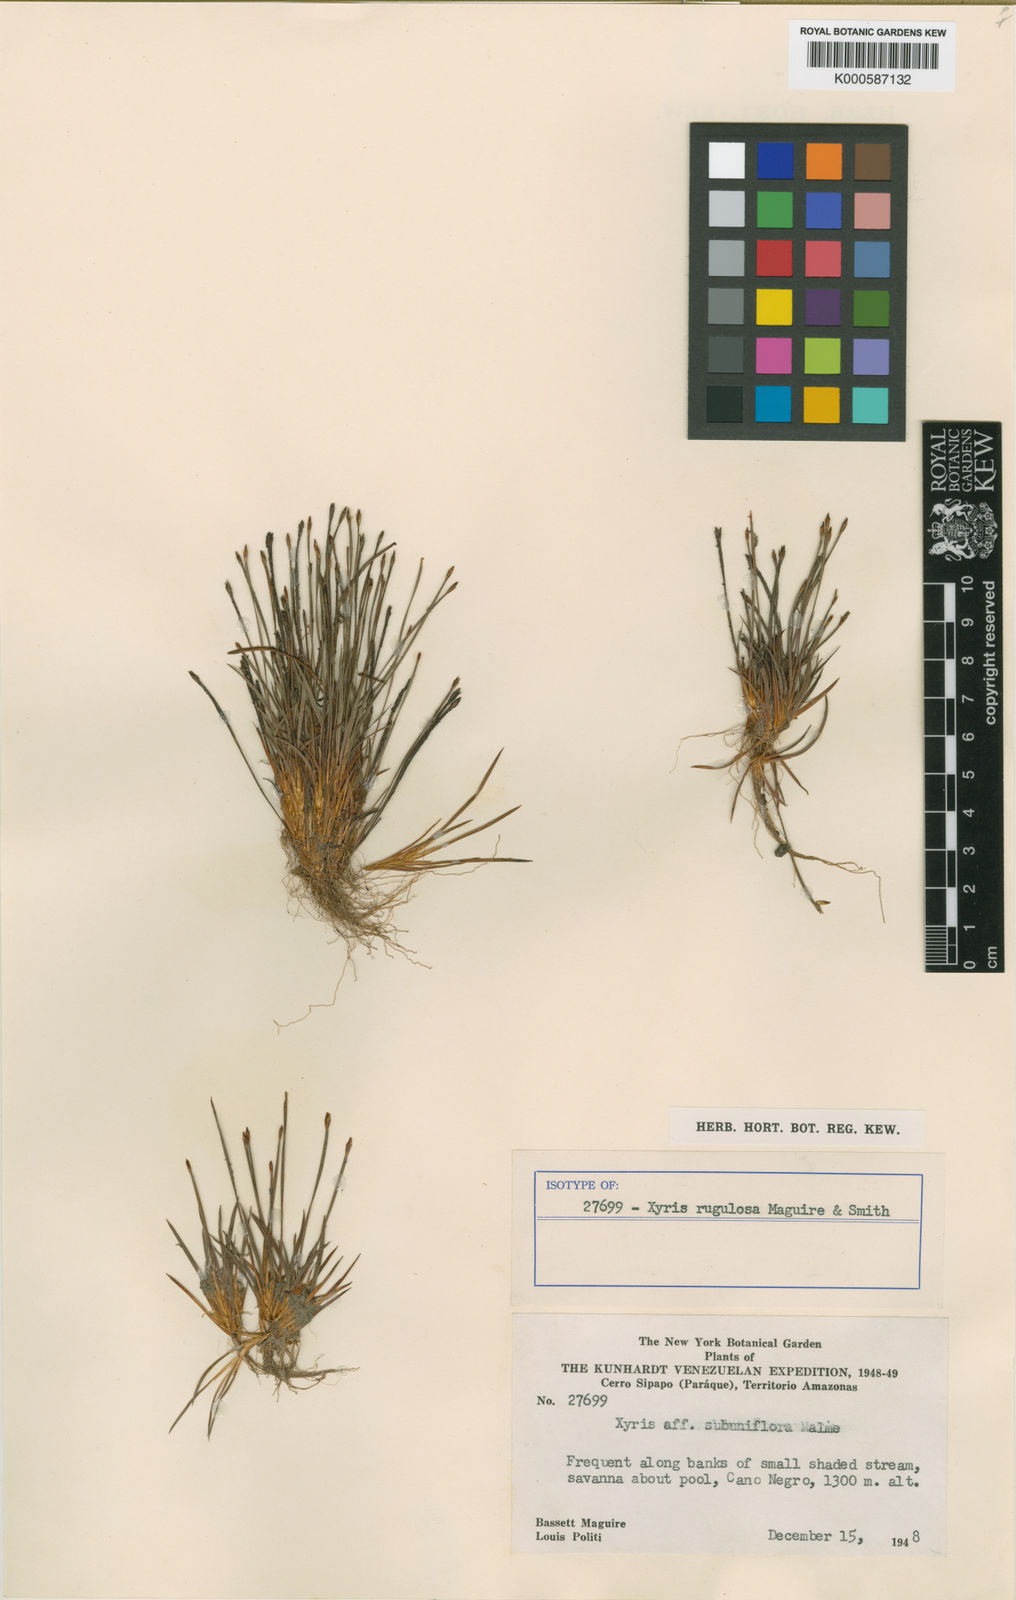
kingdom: Plantae
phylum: Tracheophyta
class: Liliopsida
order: Poales
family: Xyridaceae
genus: Xyris
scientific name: Xyris esmeraldae
